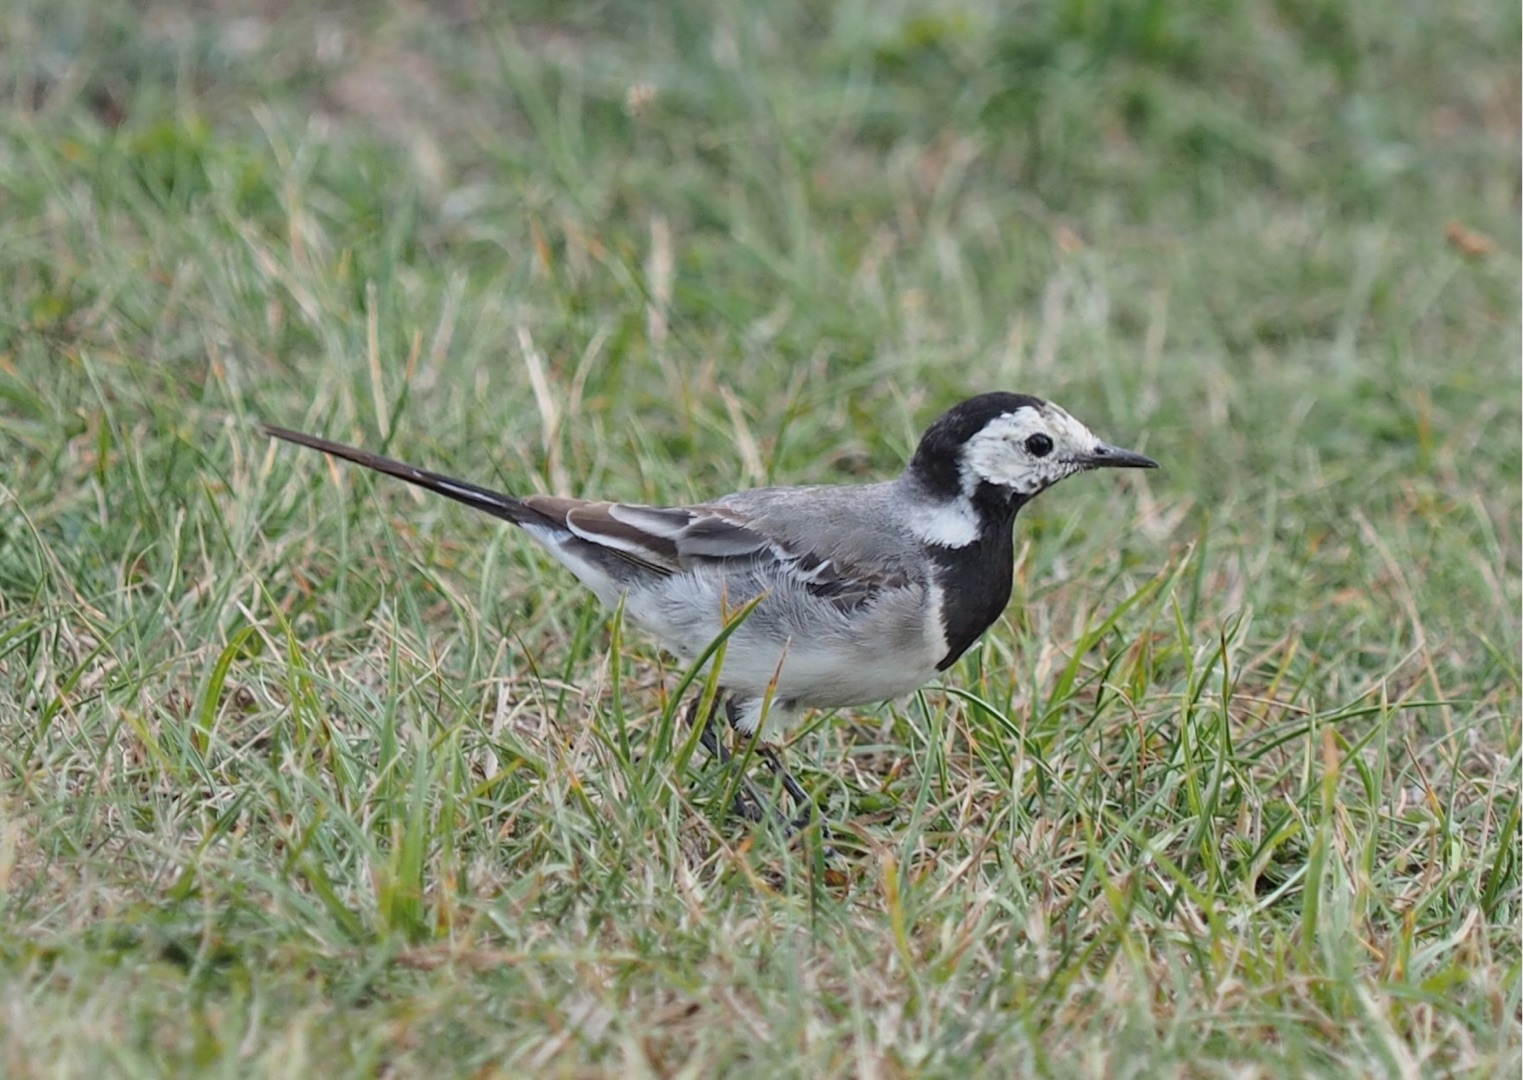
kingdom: Animalia
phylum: Chordata
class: Aves
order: Passeriformes
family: Motacillidae
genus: Motacilla
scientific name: Motacilla alba
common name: Hvid vipstjert
